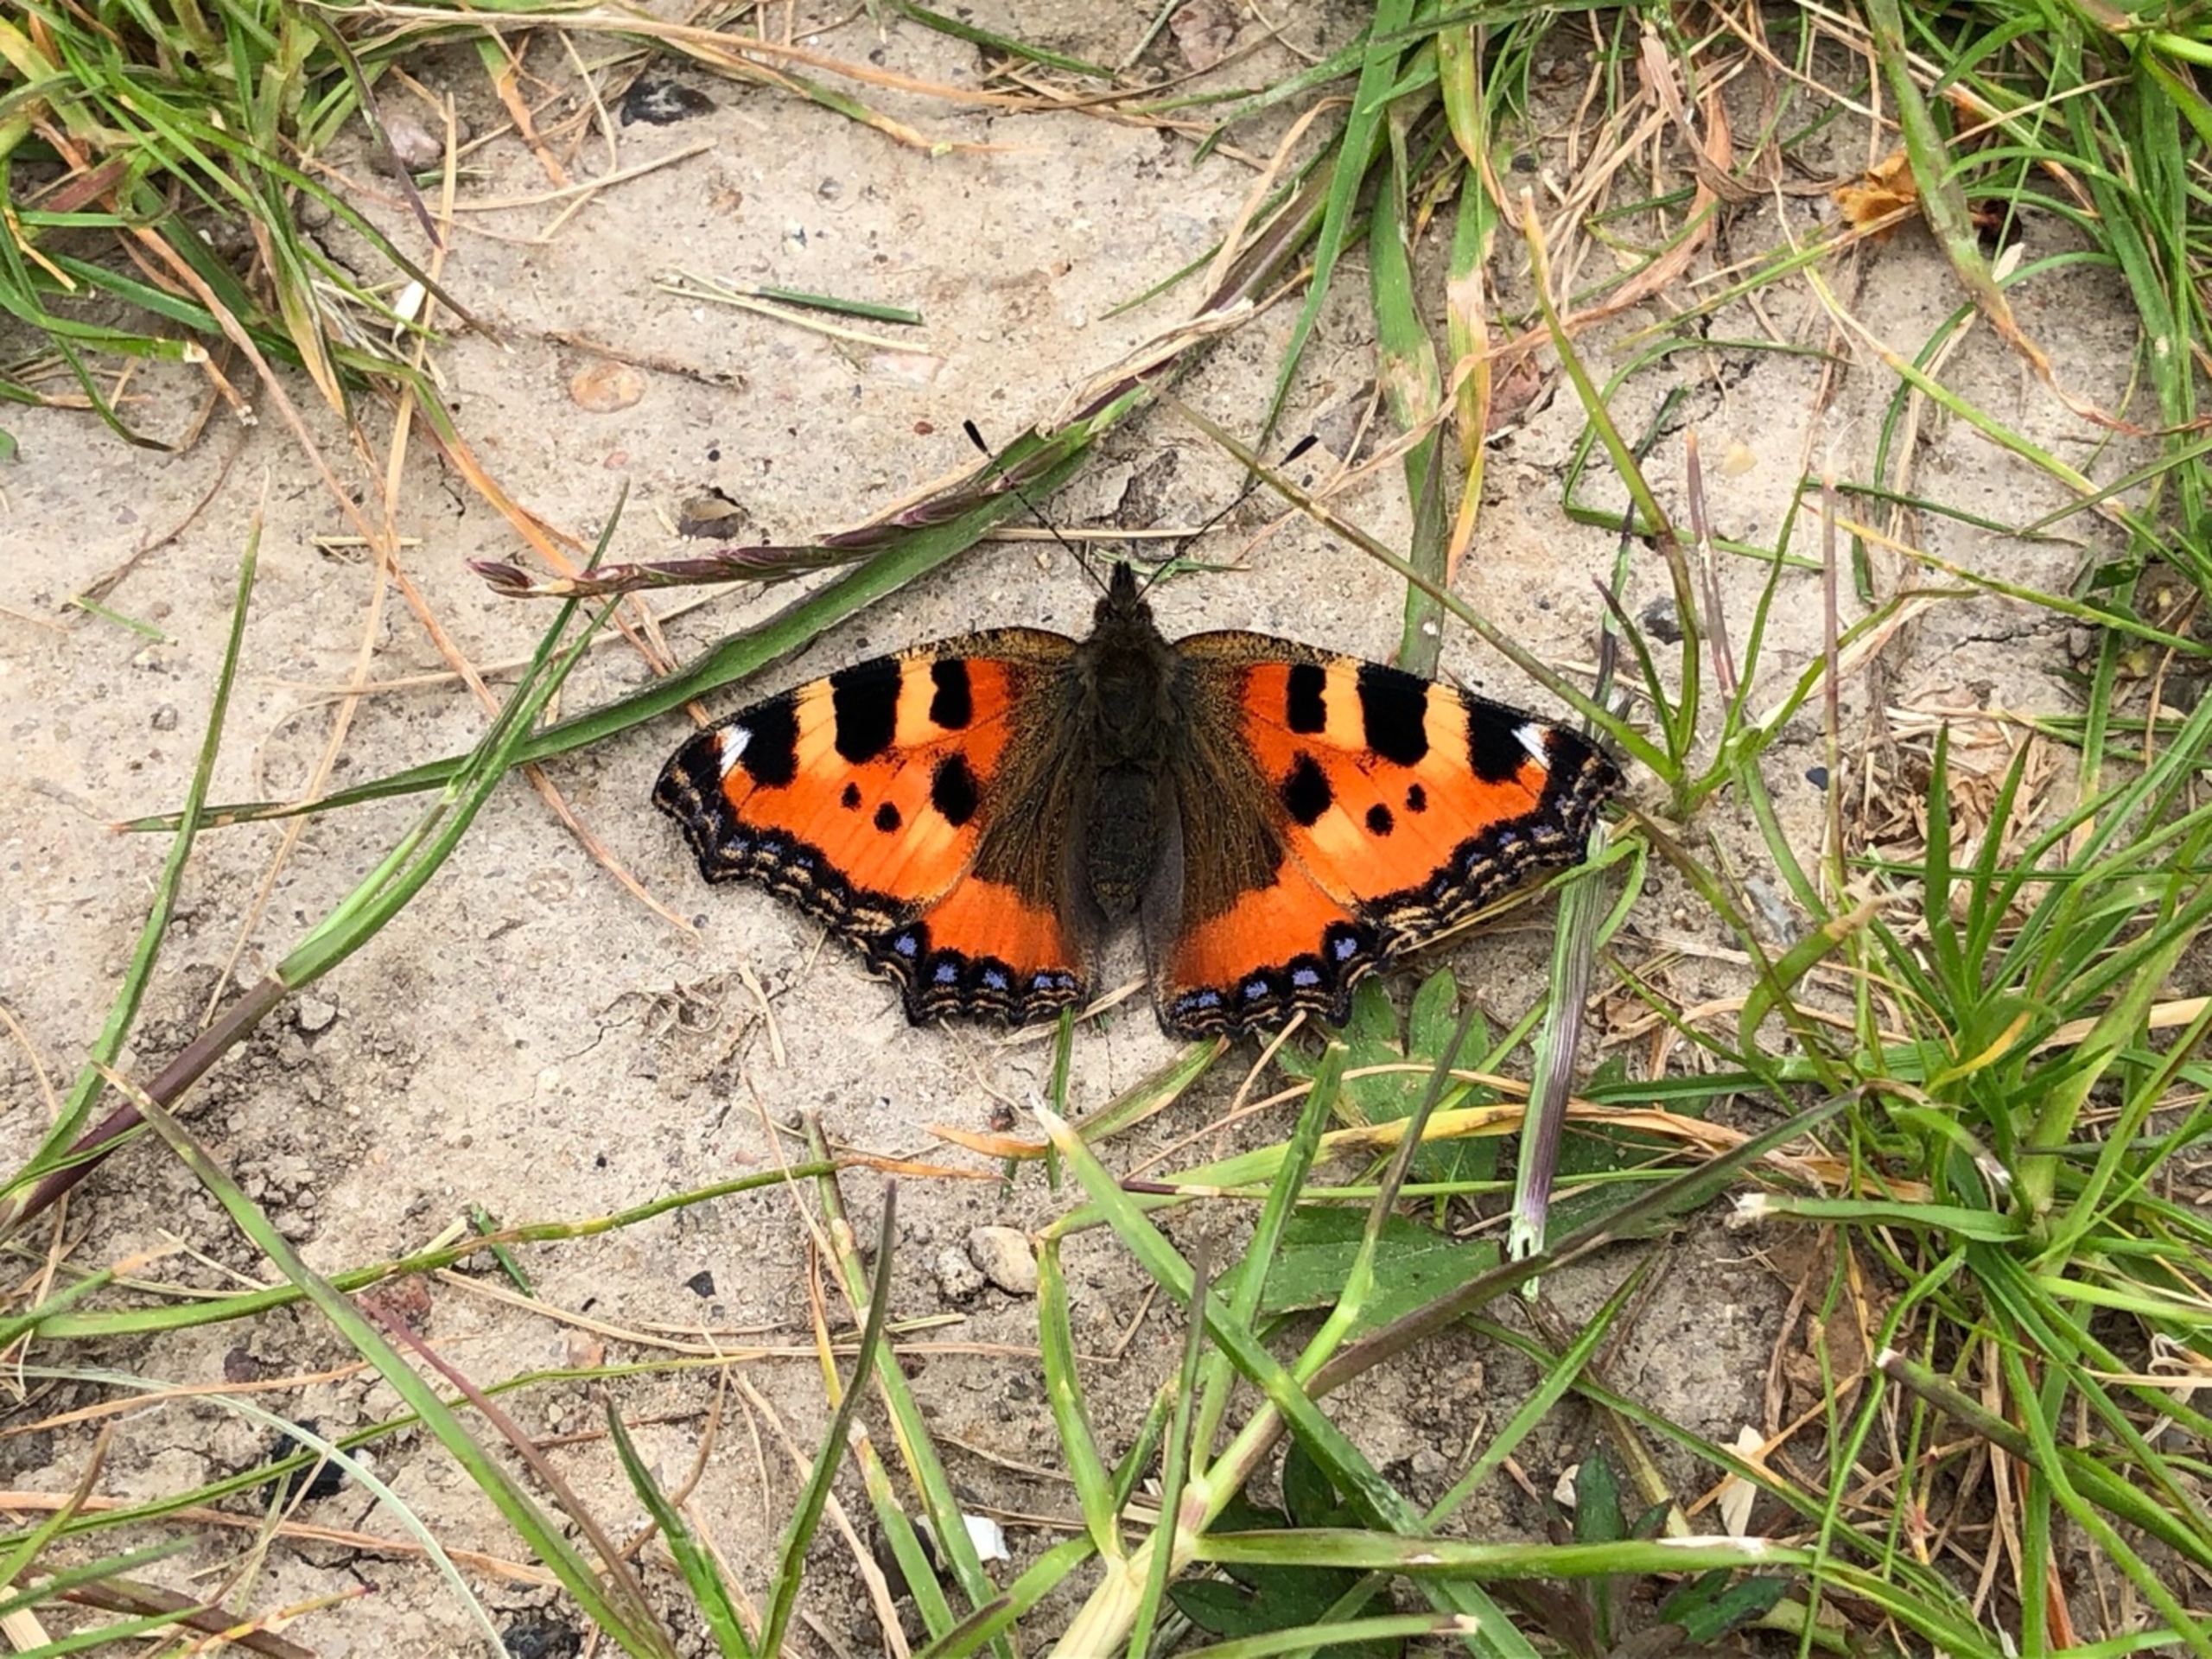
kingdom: Animalia
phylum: Arthropoda
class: Insecta
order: Lepidoptera
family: Nymphalidae
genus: Aglais
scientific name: Aglais urticae
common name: Nældens takvinge
